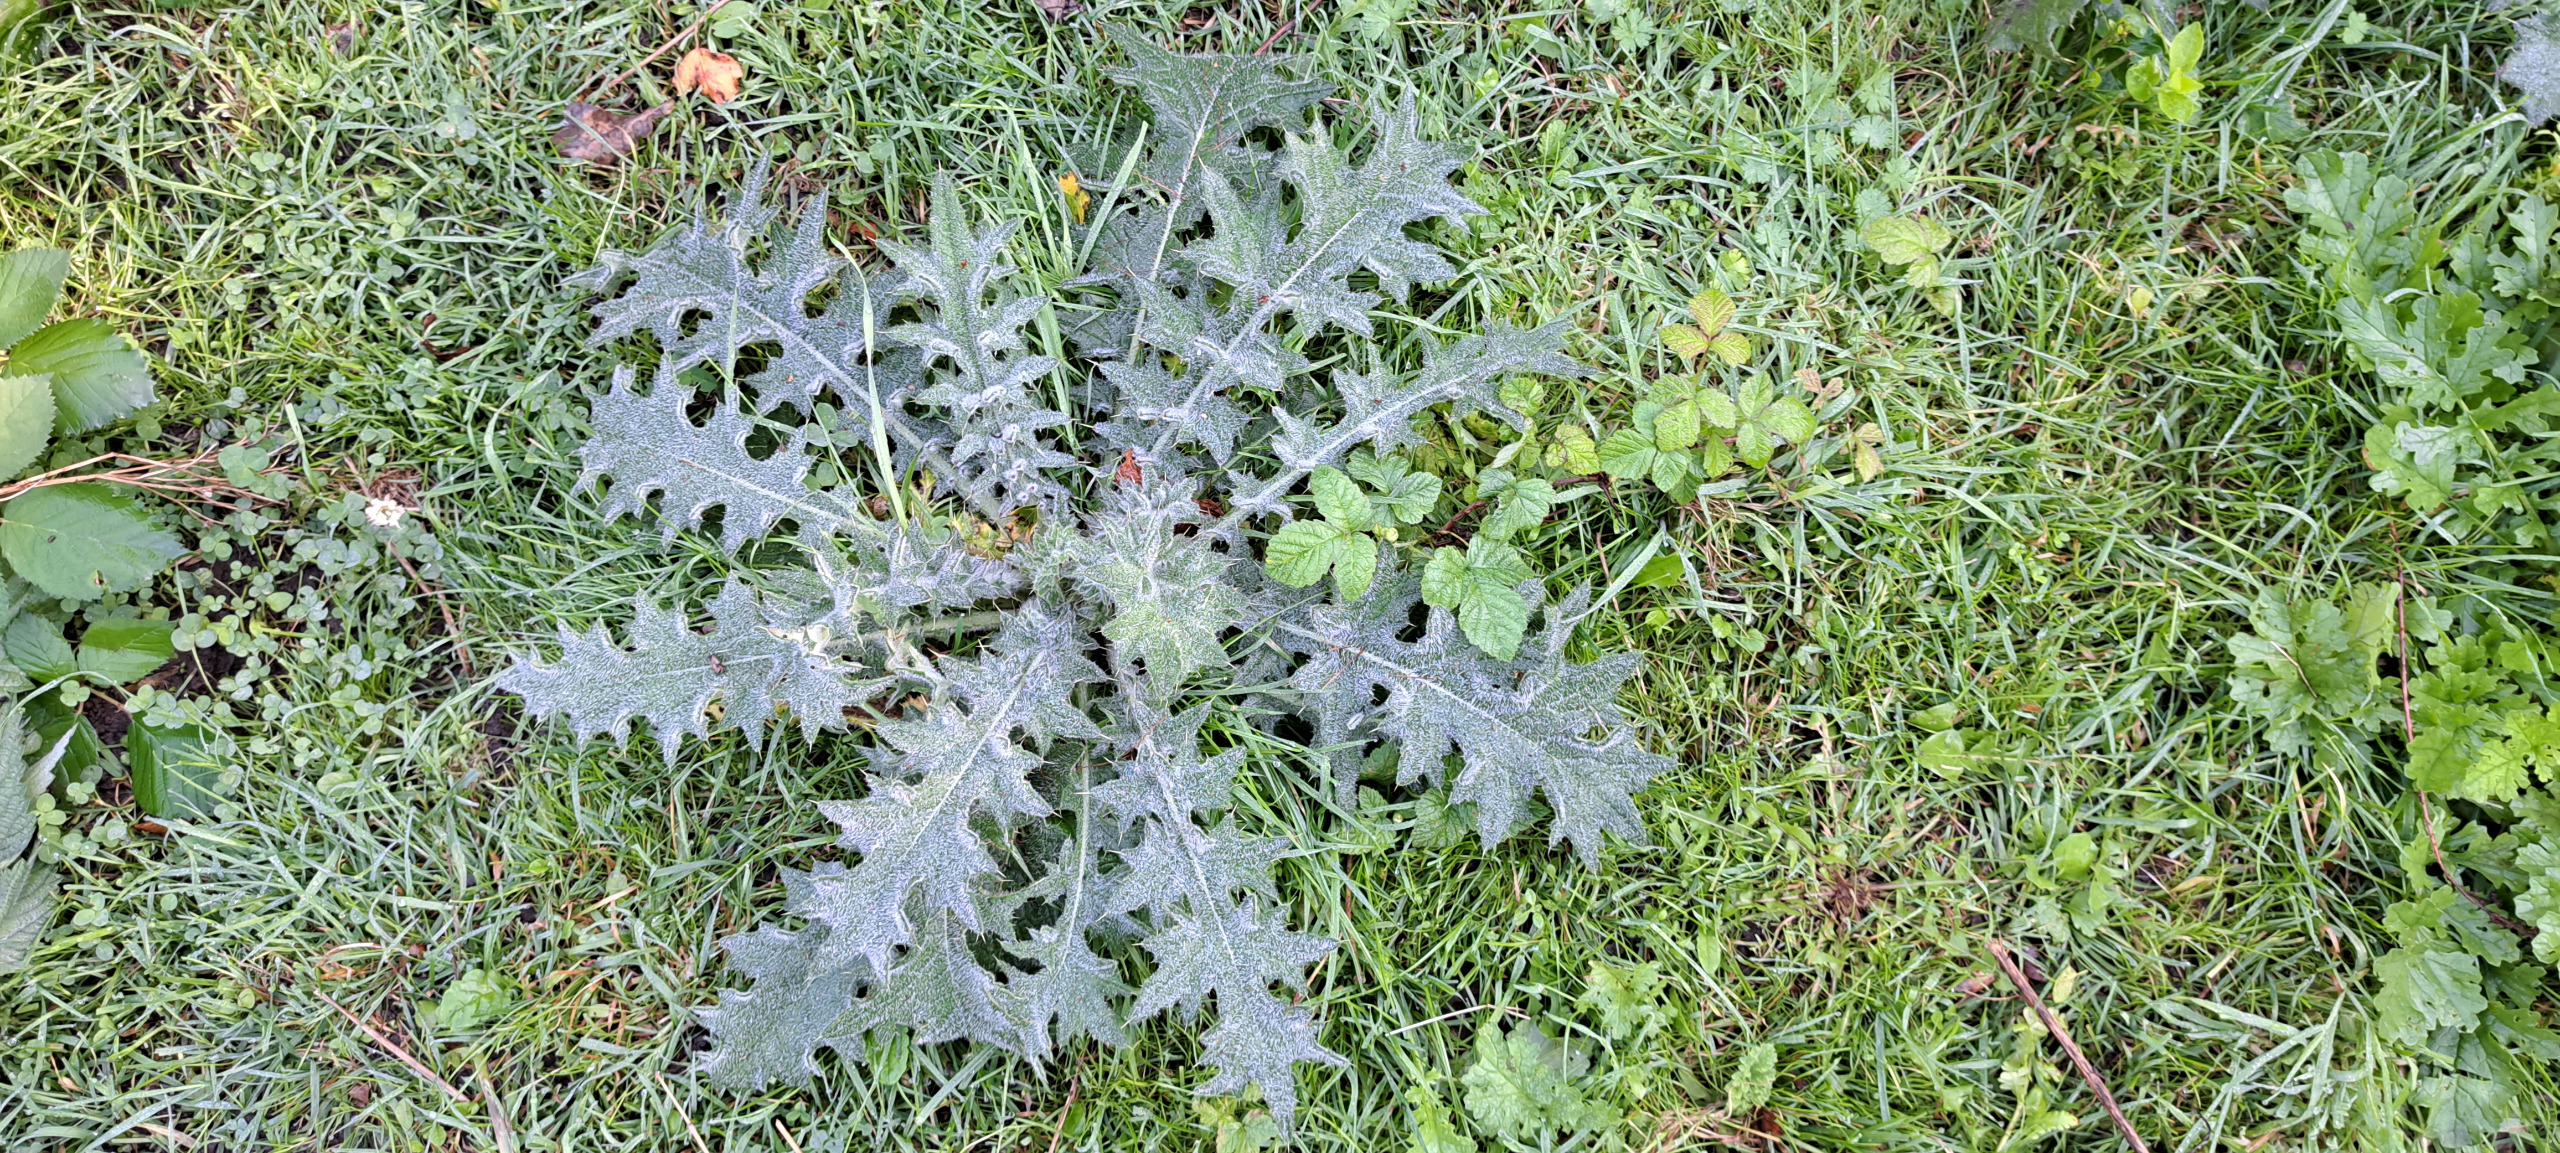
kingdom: Plantae
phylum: Tracheophyta
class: Magnoliopsida
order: Asterales
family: Asteraceae
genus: Cirsium
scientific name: Cirsium vulgare
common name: Horse-tidsel
